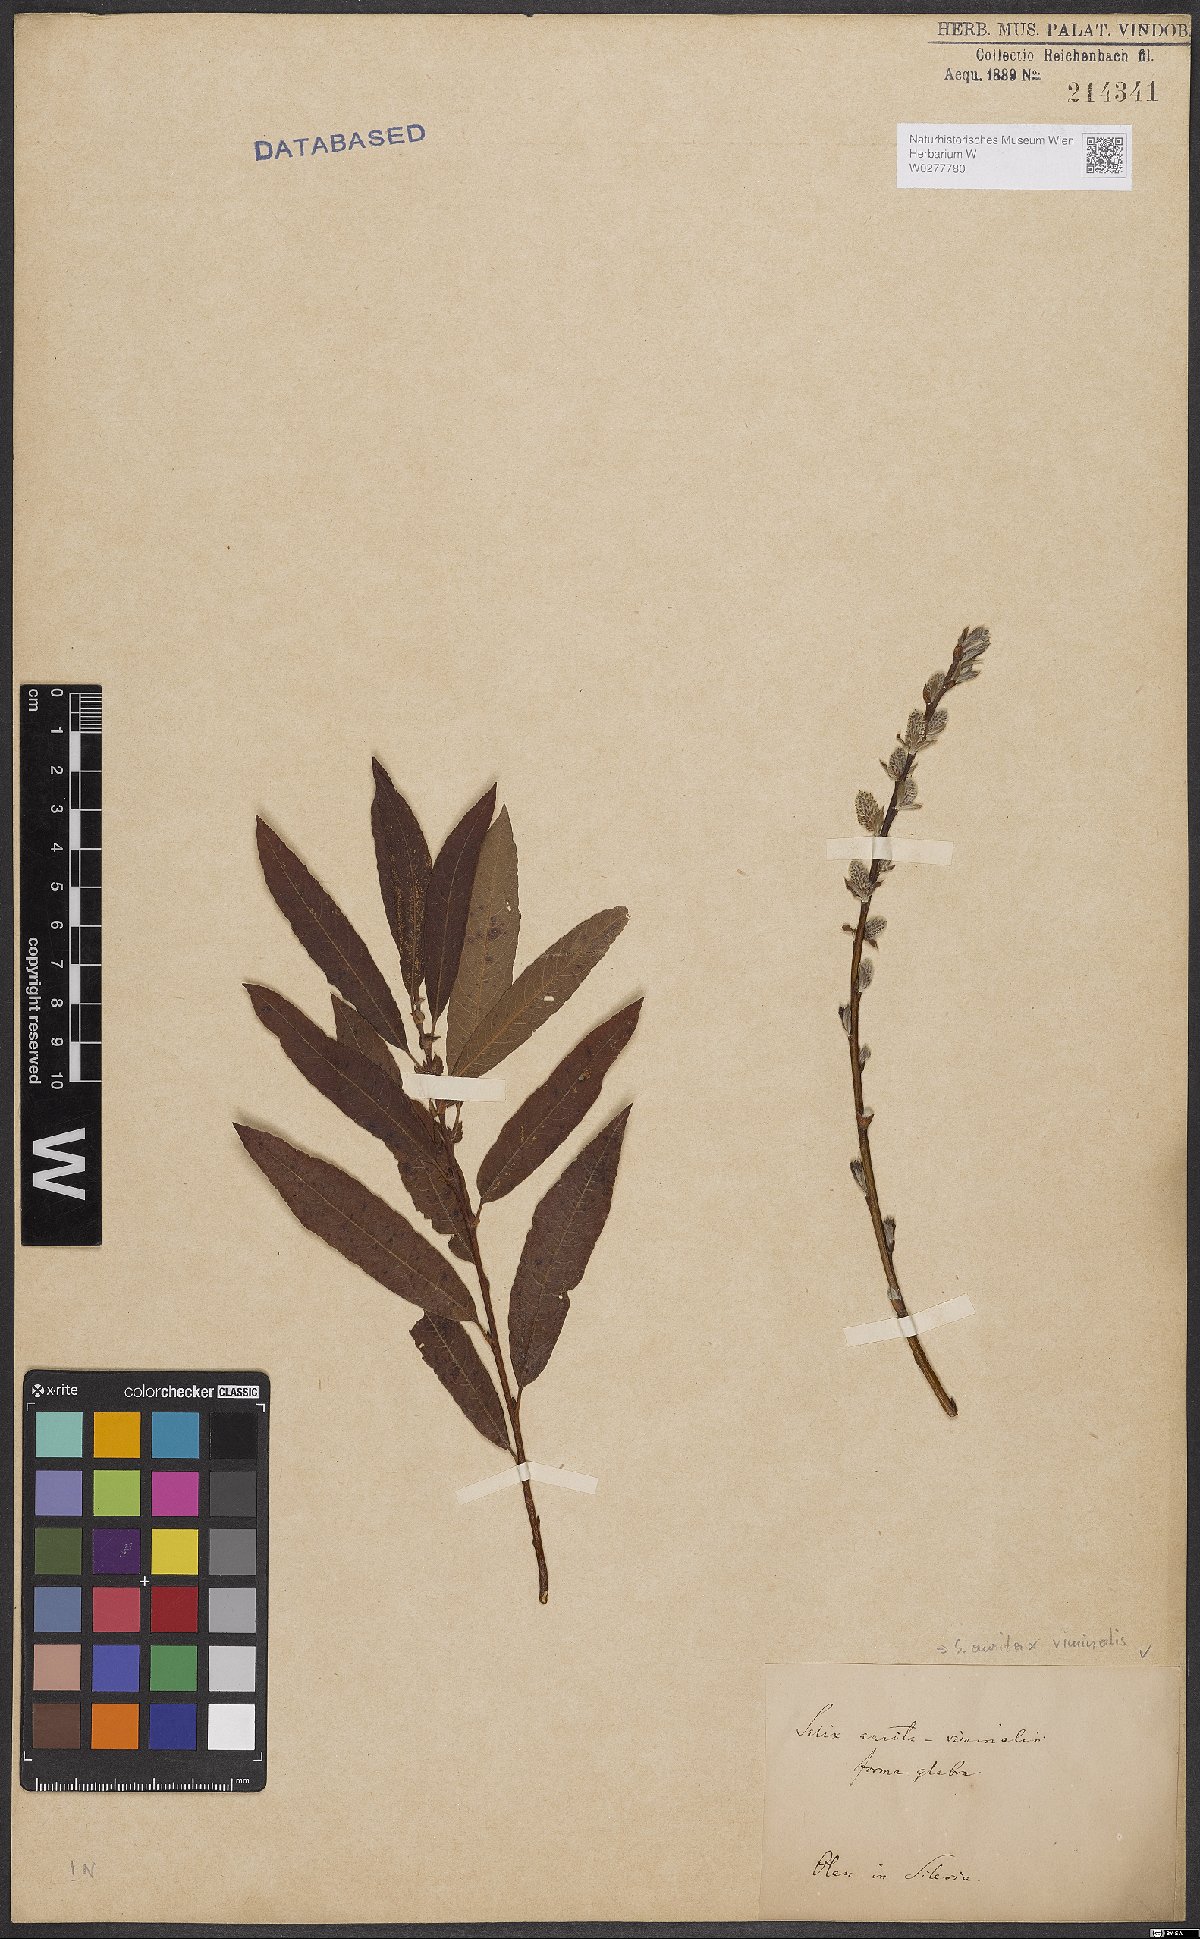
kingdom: Plantae
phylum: Tracheophyta
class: Magnoliopsida
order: Malpighiales
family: Salicaceae
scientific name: Salicaceae
